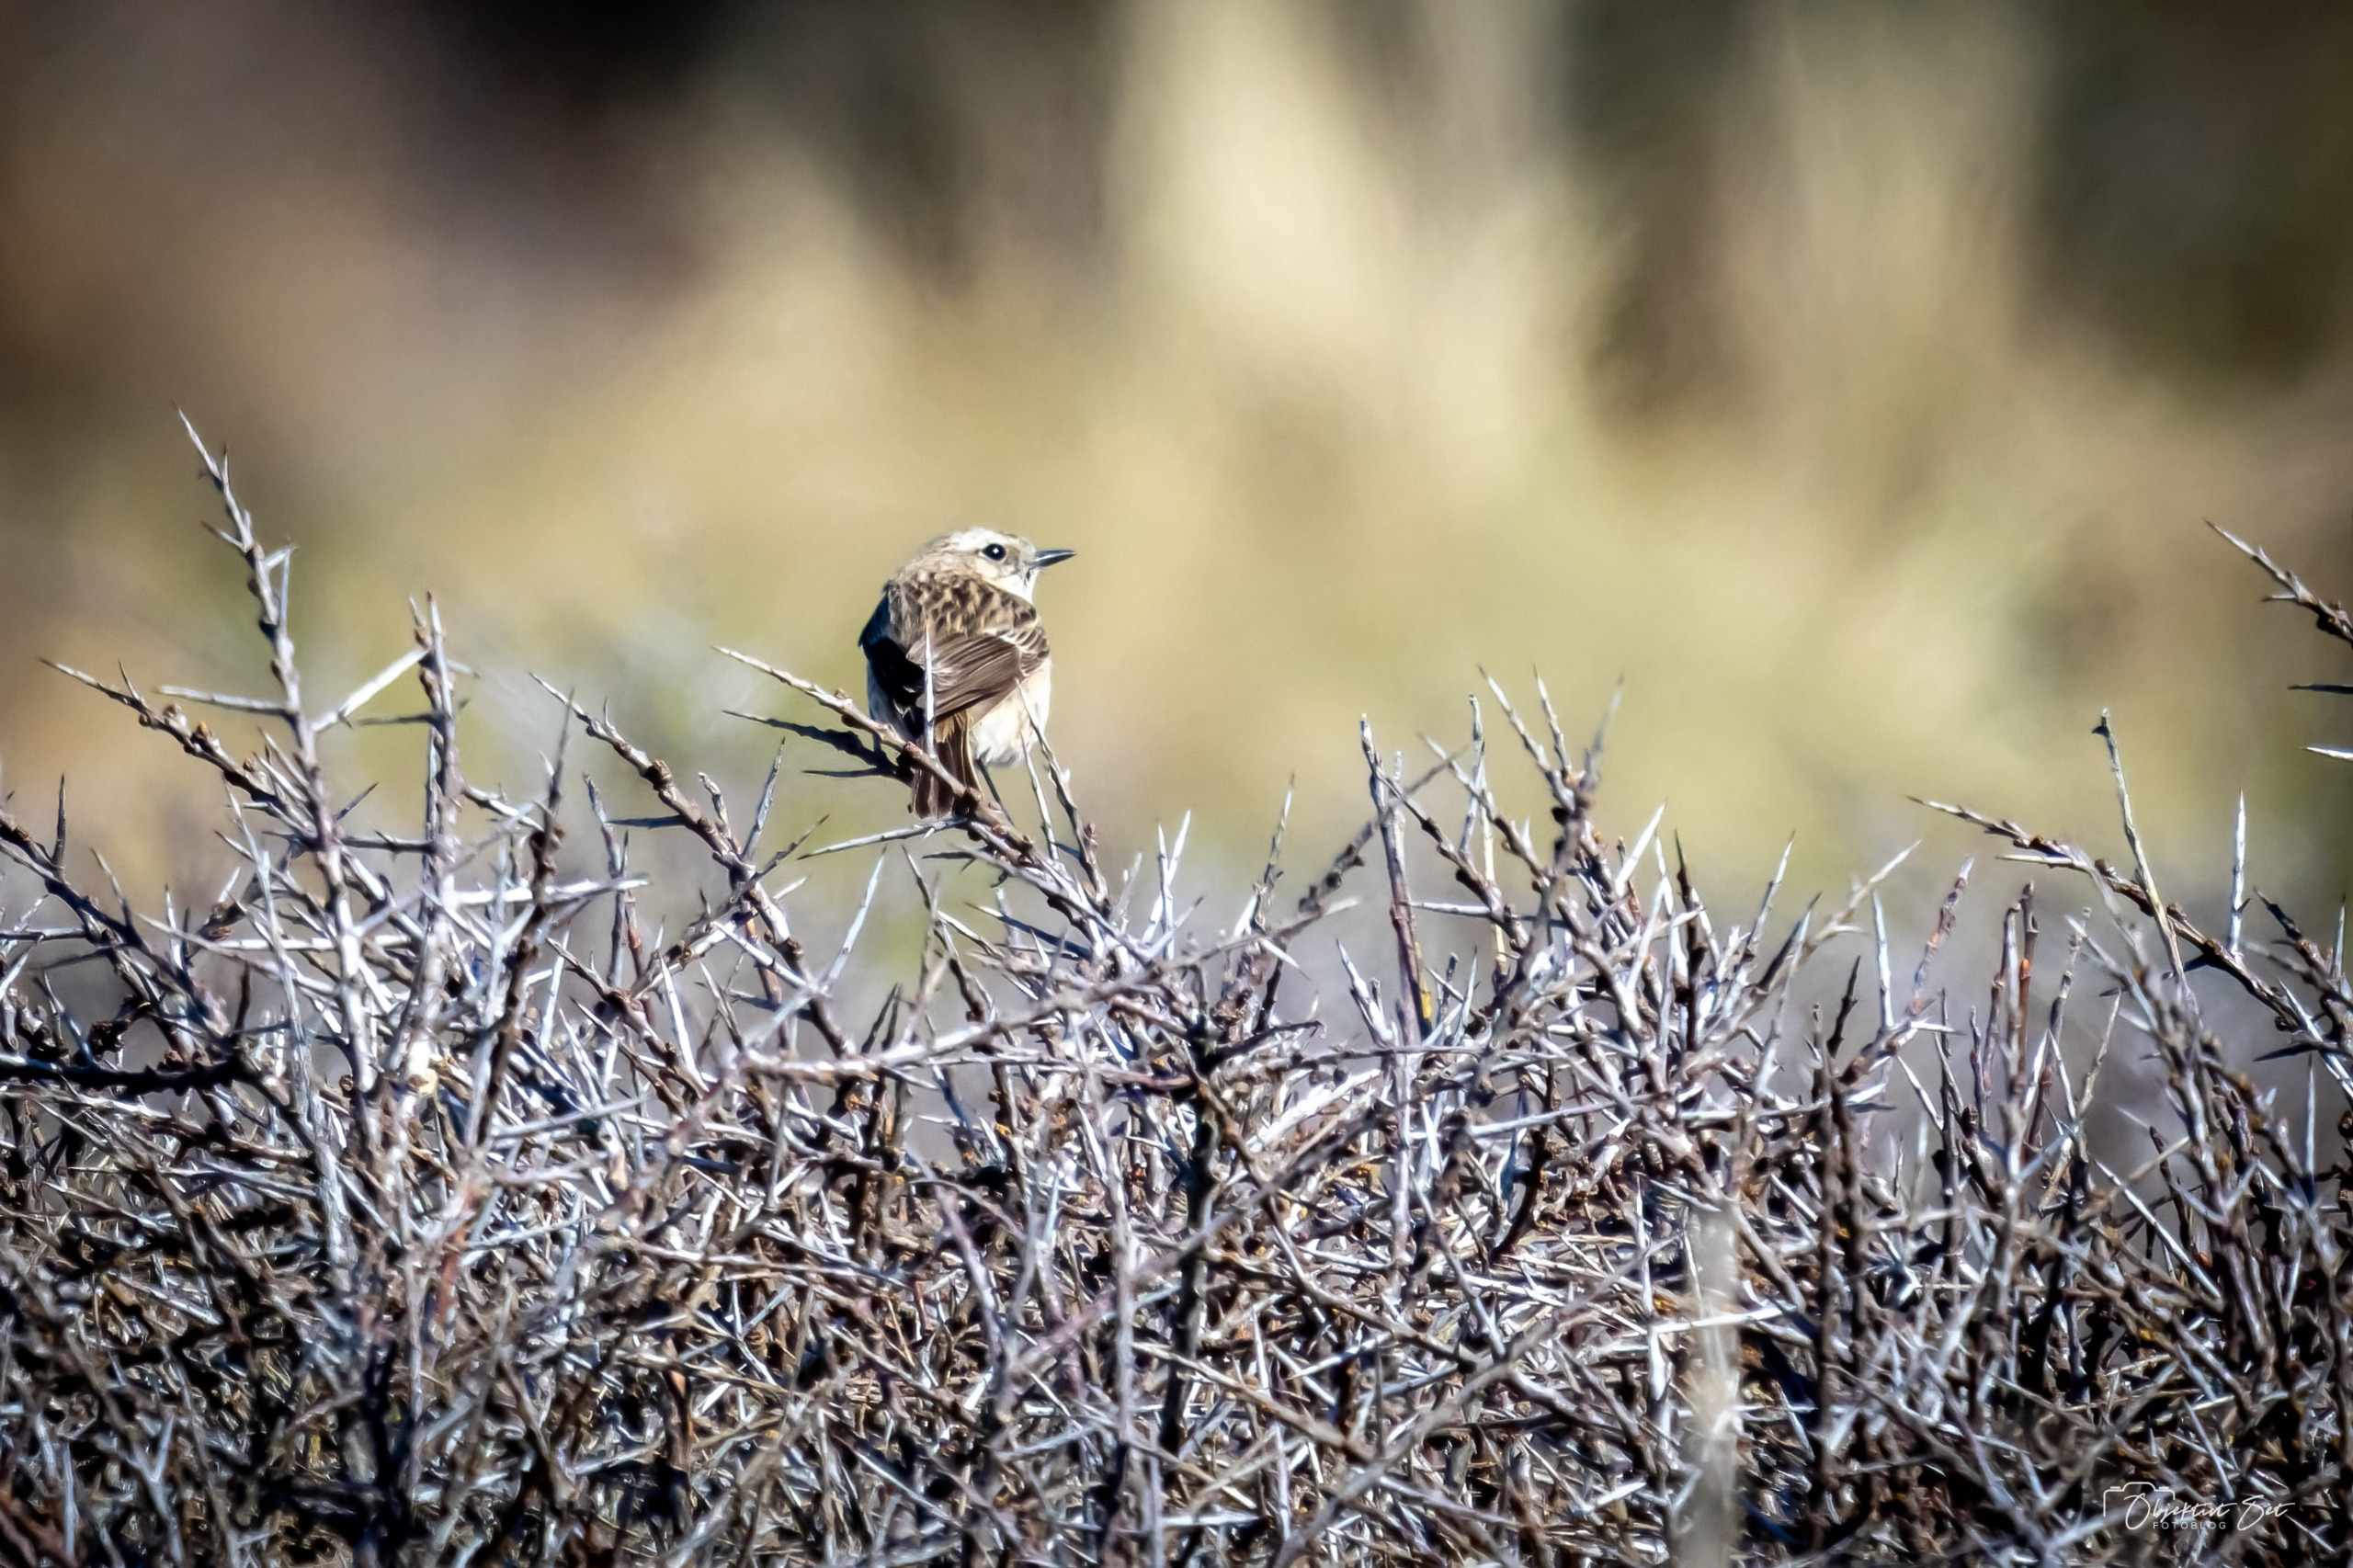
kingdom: Animalia
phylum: Chordata
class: Aves
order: Passeriformes
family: Muscicapidae
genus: Saxicola
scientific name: Saxicola rubicola
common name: Sortstrubet bynkefugl
